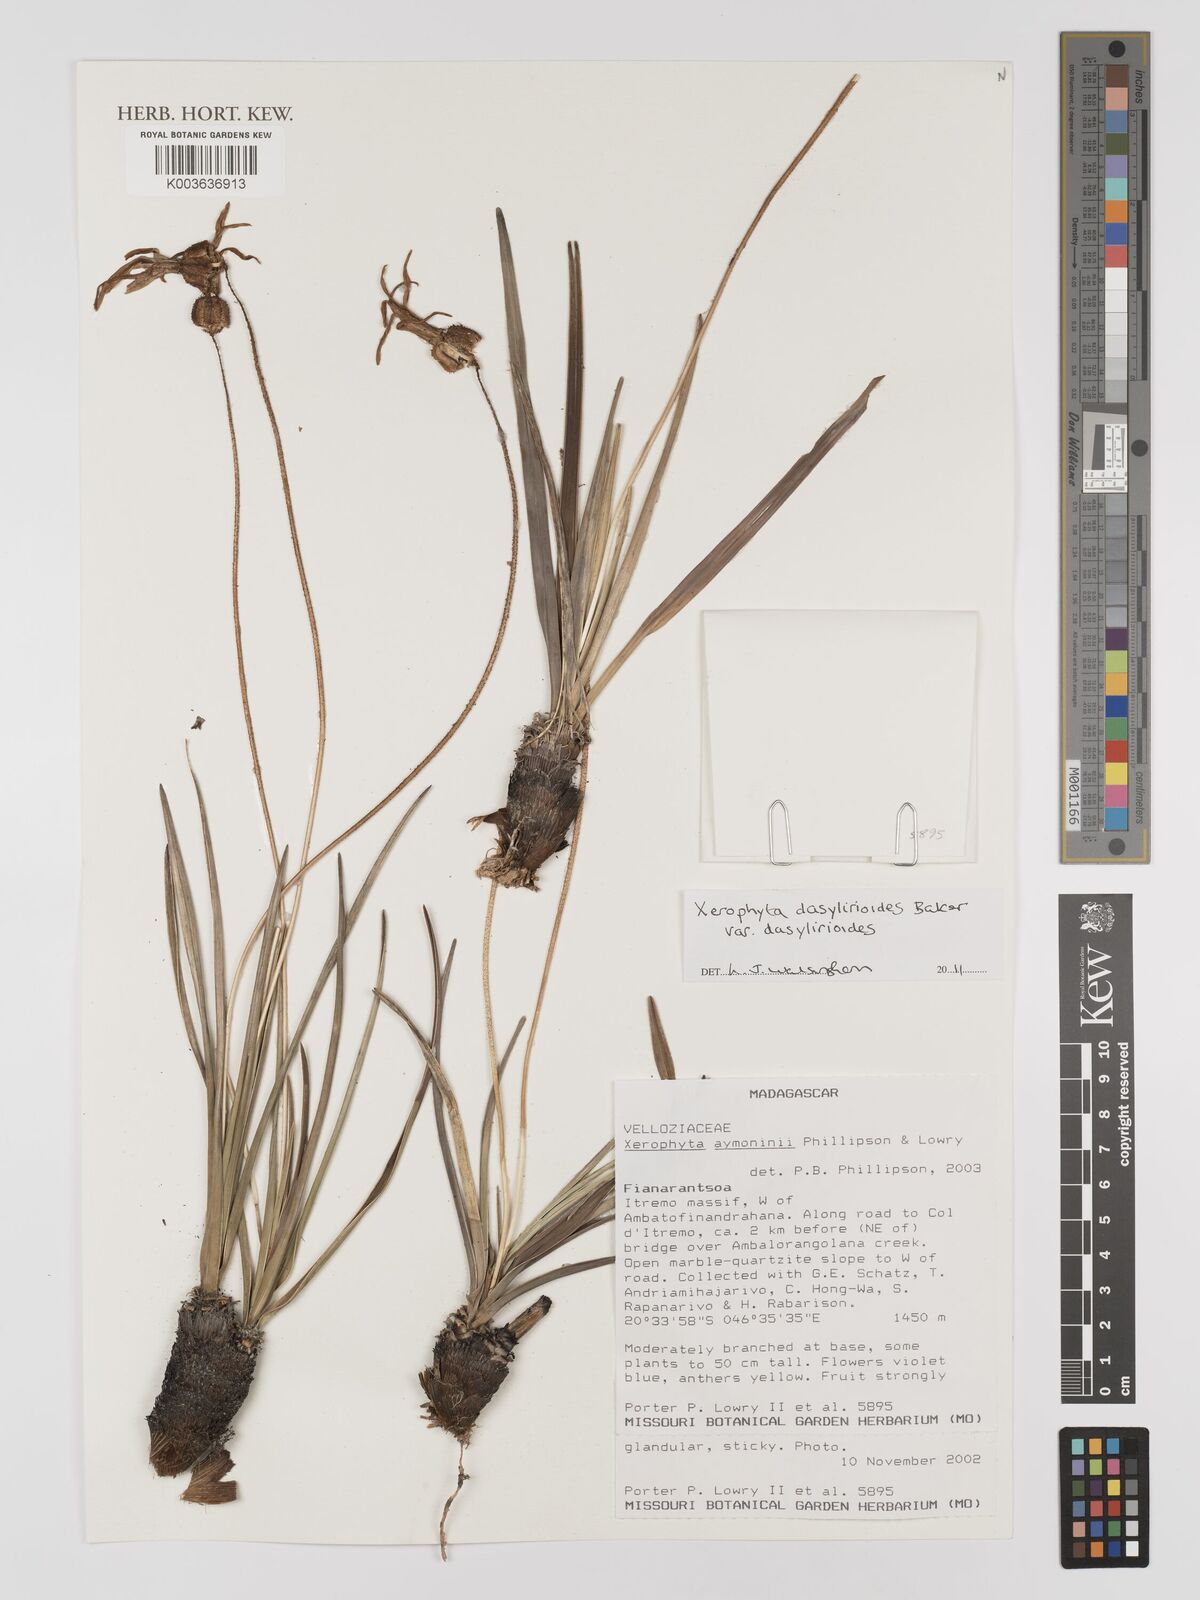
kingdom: Plantae
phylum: Tracheophyta
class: Liliopsida
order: Pandanales
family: Velloziaceae
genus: Xerophyta
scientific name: Xerophyta dasylirioides
